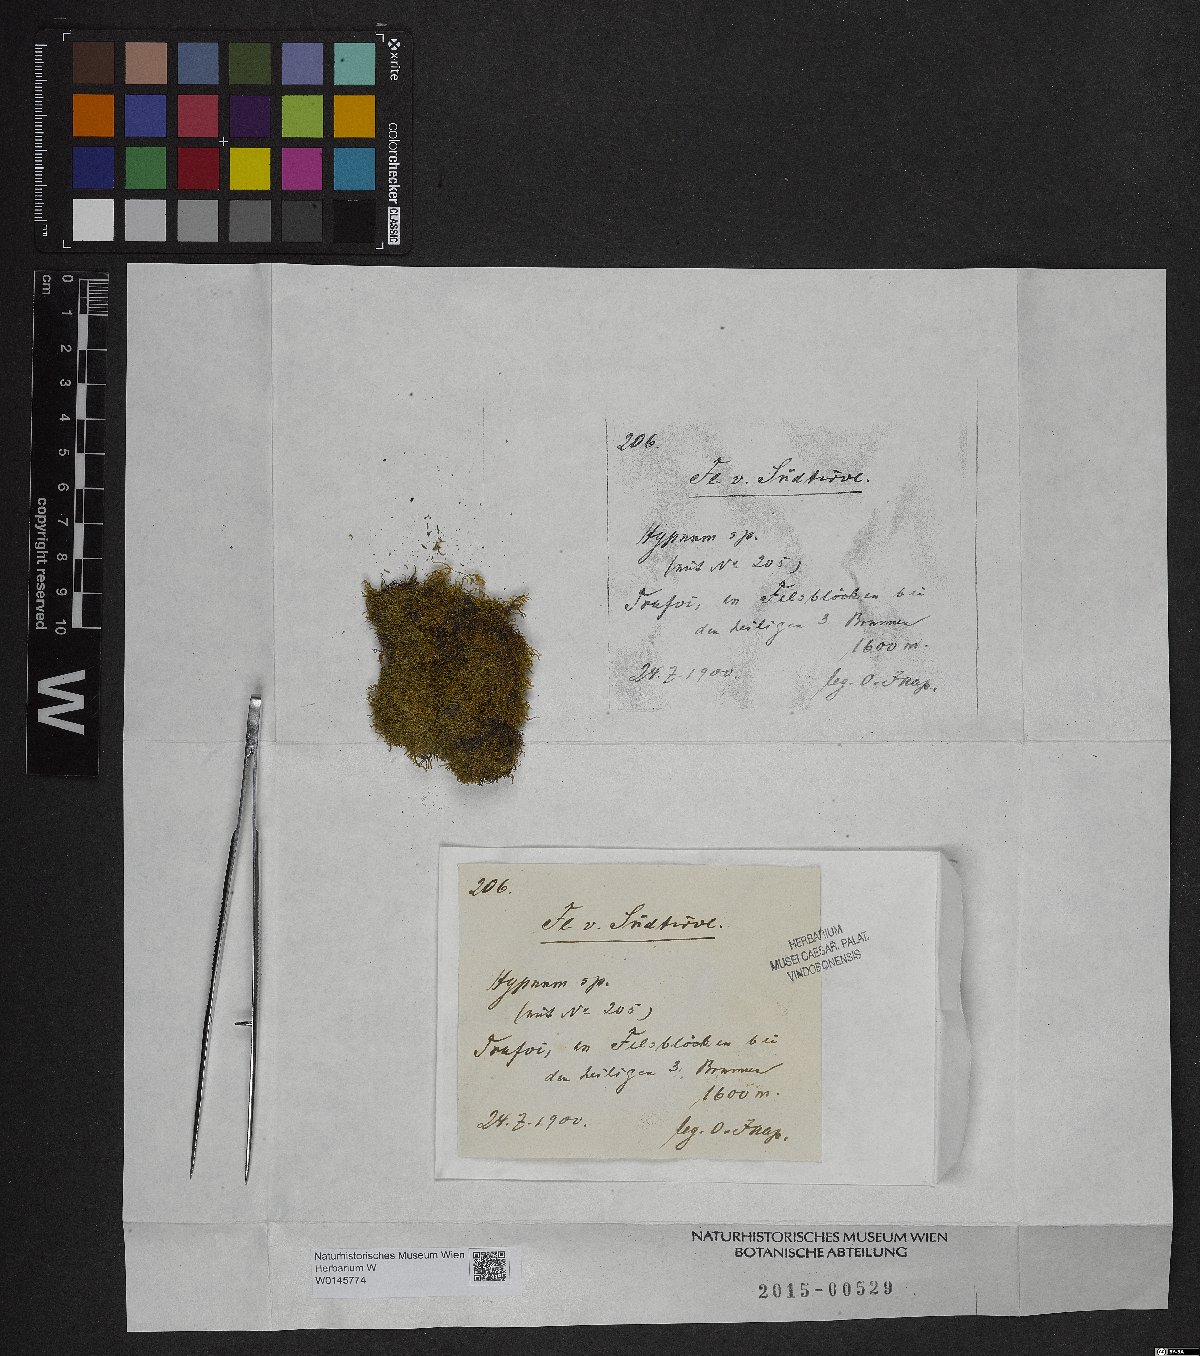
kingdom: Plantae
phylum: Bryophyta
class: Bryopsida
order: Hypnales
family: Hypnaceae
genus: Hypnum
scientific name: Hypnum
